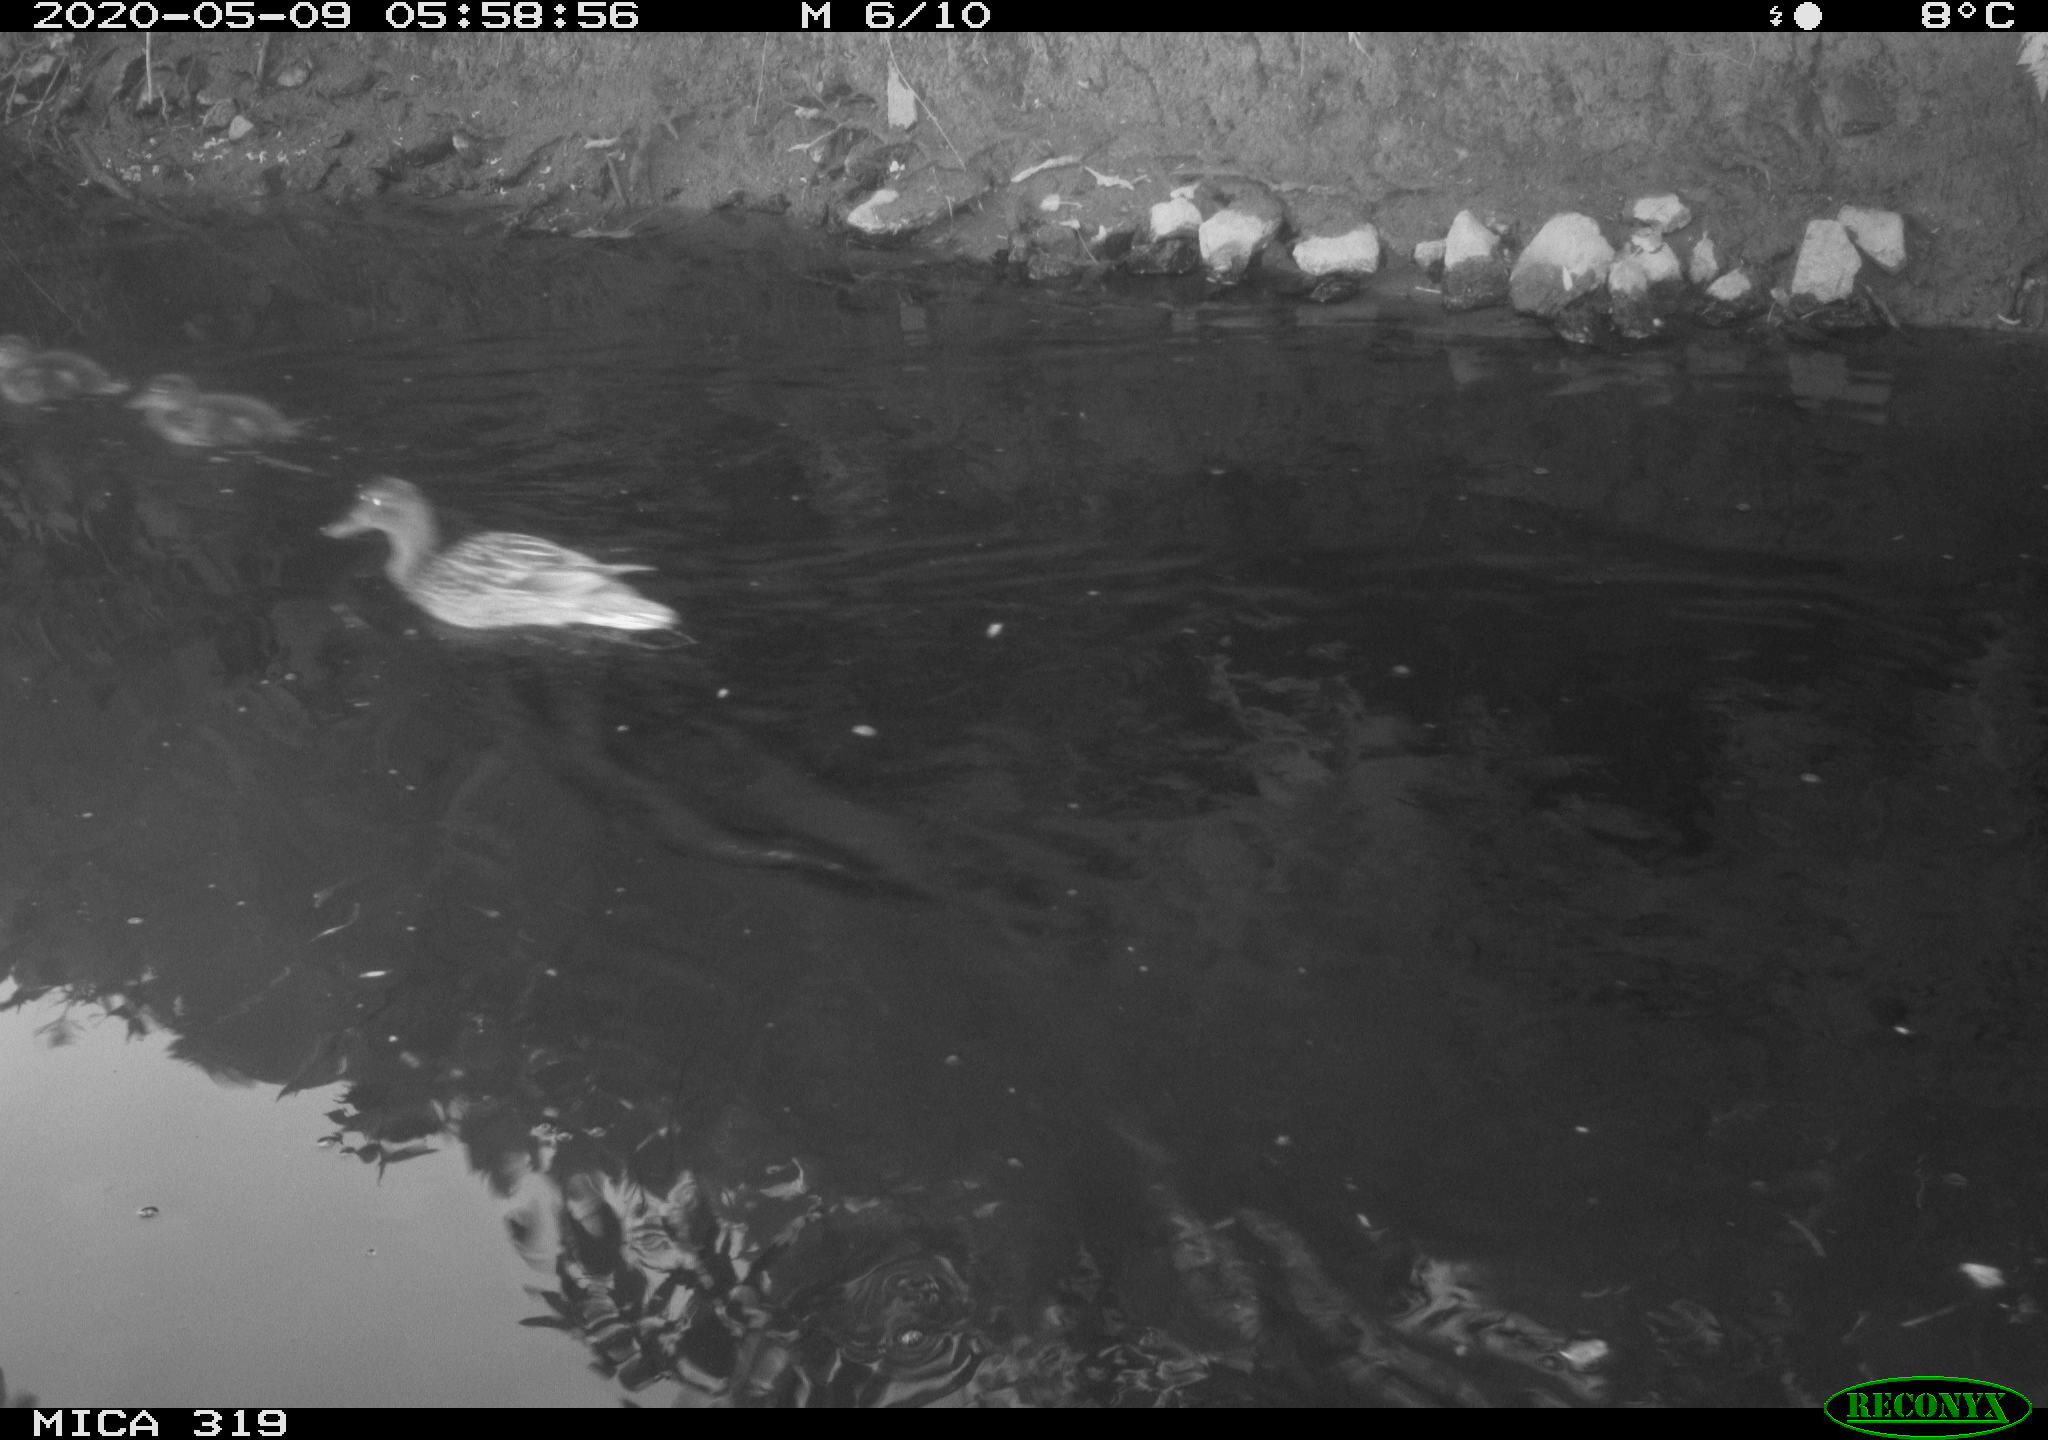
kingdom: Animalia
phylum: Chordata
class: Aves
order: Anseriformes
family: Anatidae
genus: Anas
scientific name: Anas platyrhynchos
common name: Mallard
